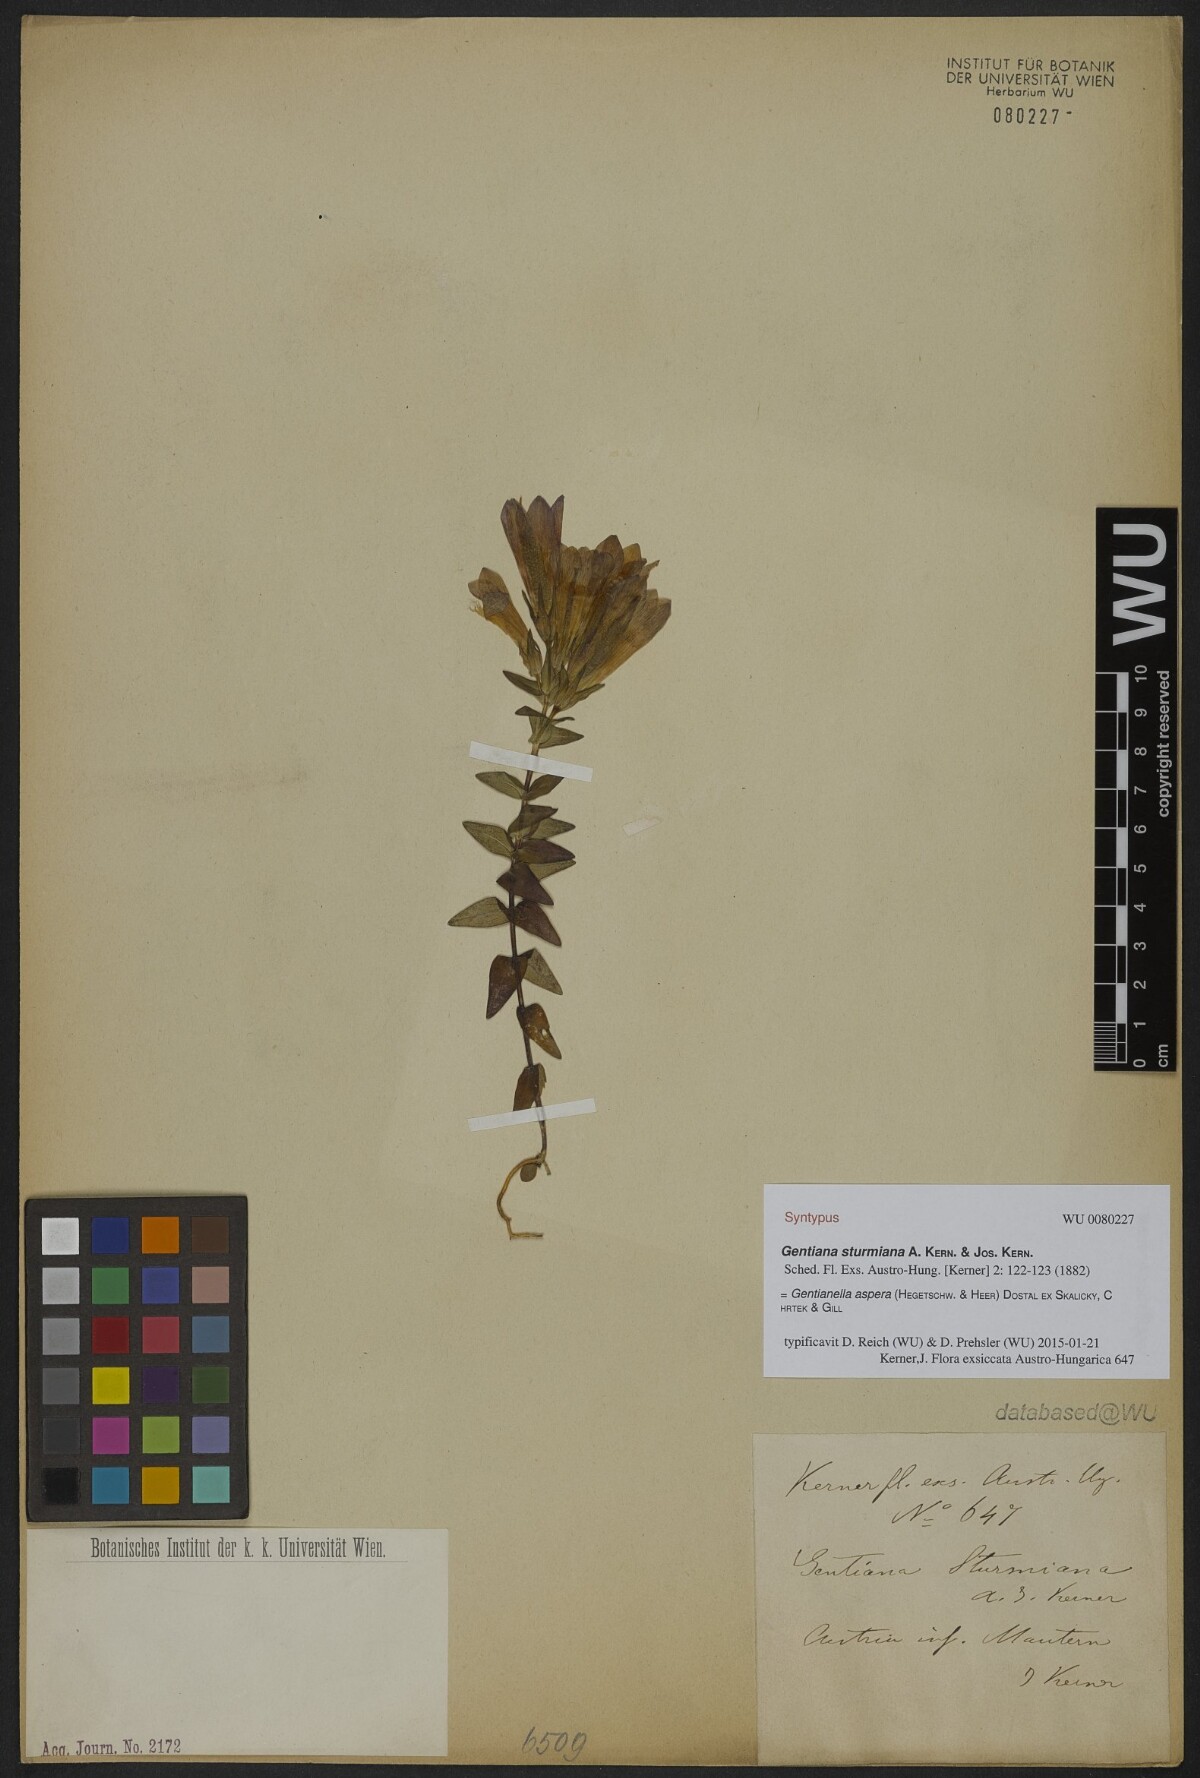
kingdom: Plantae
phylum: Tracheophyta
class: Magnoliopsida
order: Gentianales
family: Gentianaceae
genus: Gentianella
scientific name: Gentianella obtusifolia
